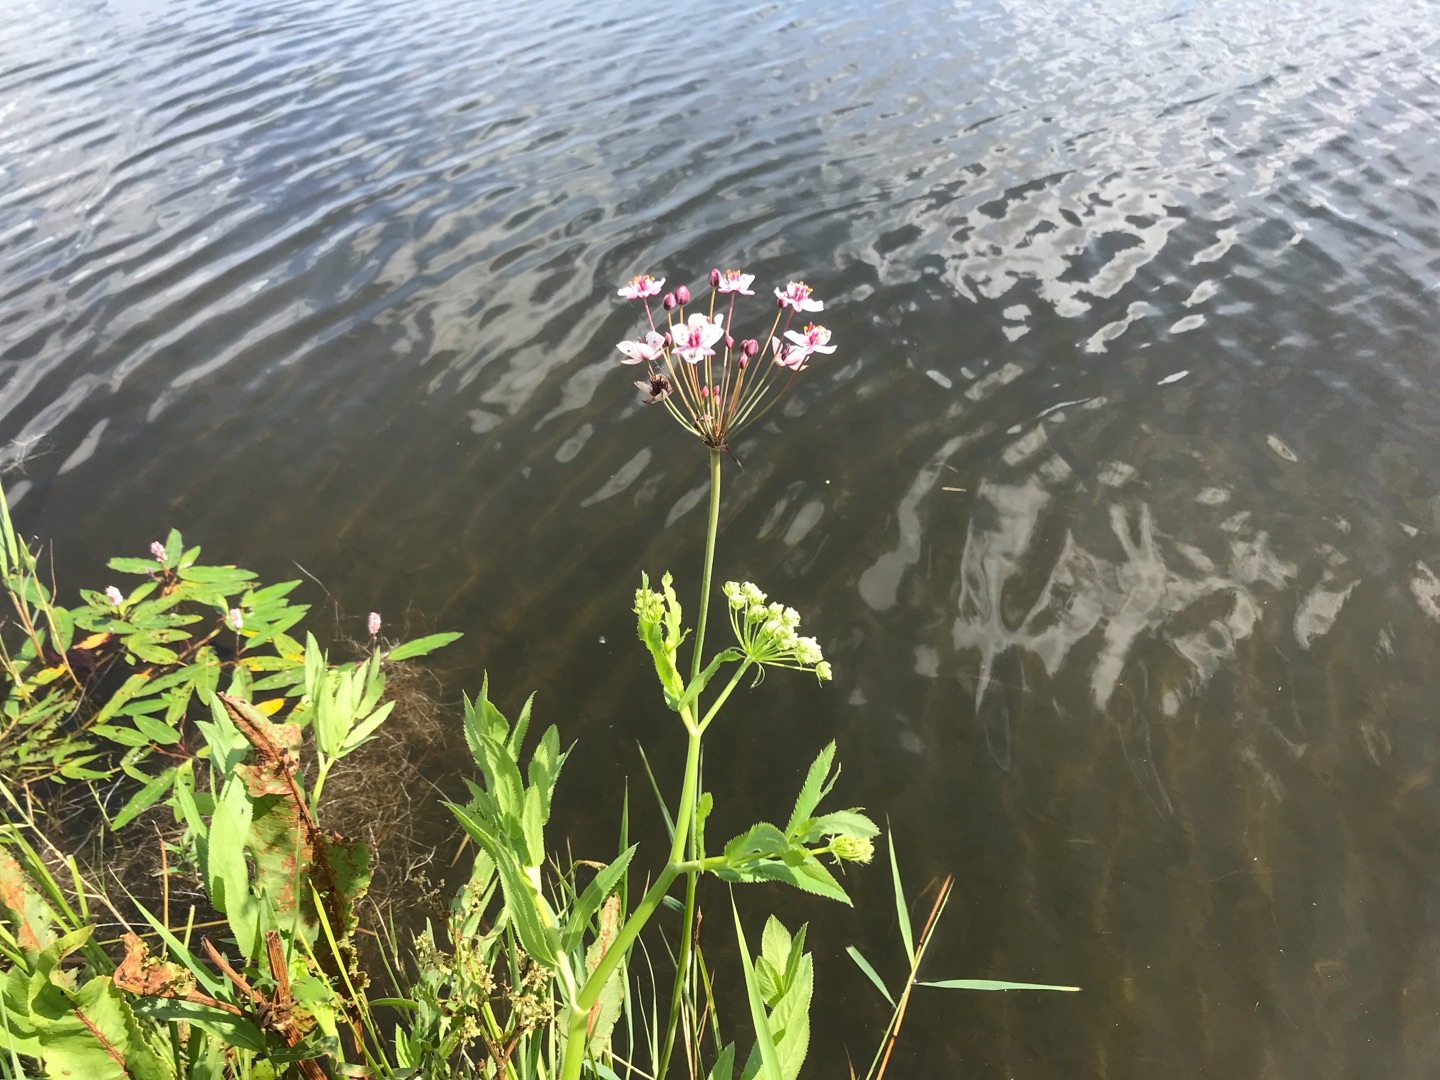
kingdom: Plantae
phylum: Tracheophyta
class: Liliopsida
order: Alismatales
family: Butomaceae
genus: Butomus
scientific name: Butomus umbellatus
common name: Brudelys
